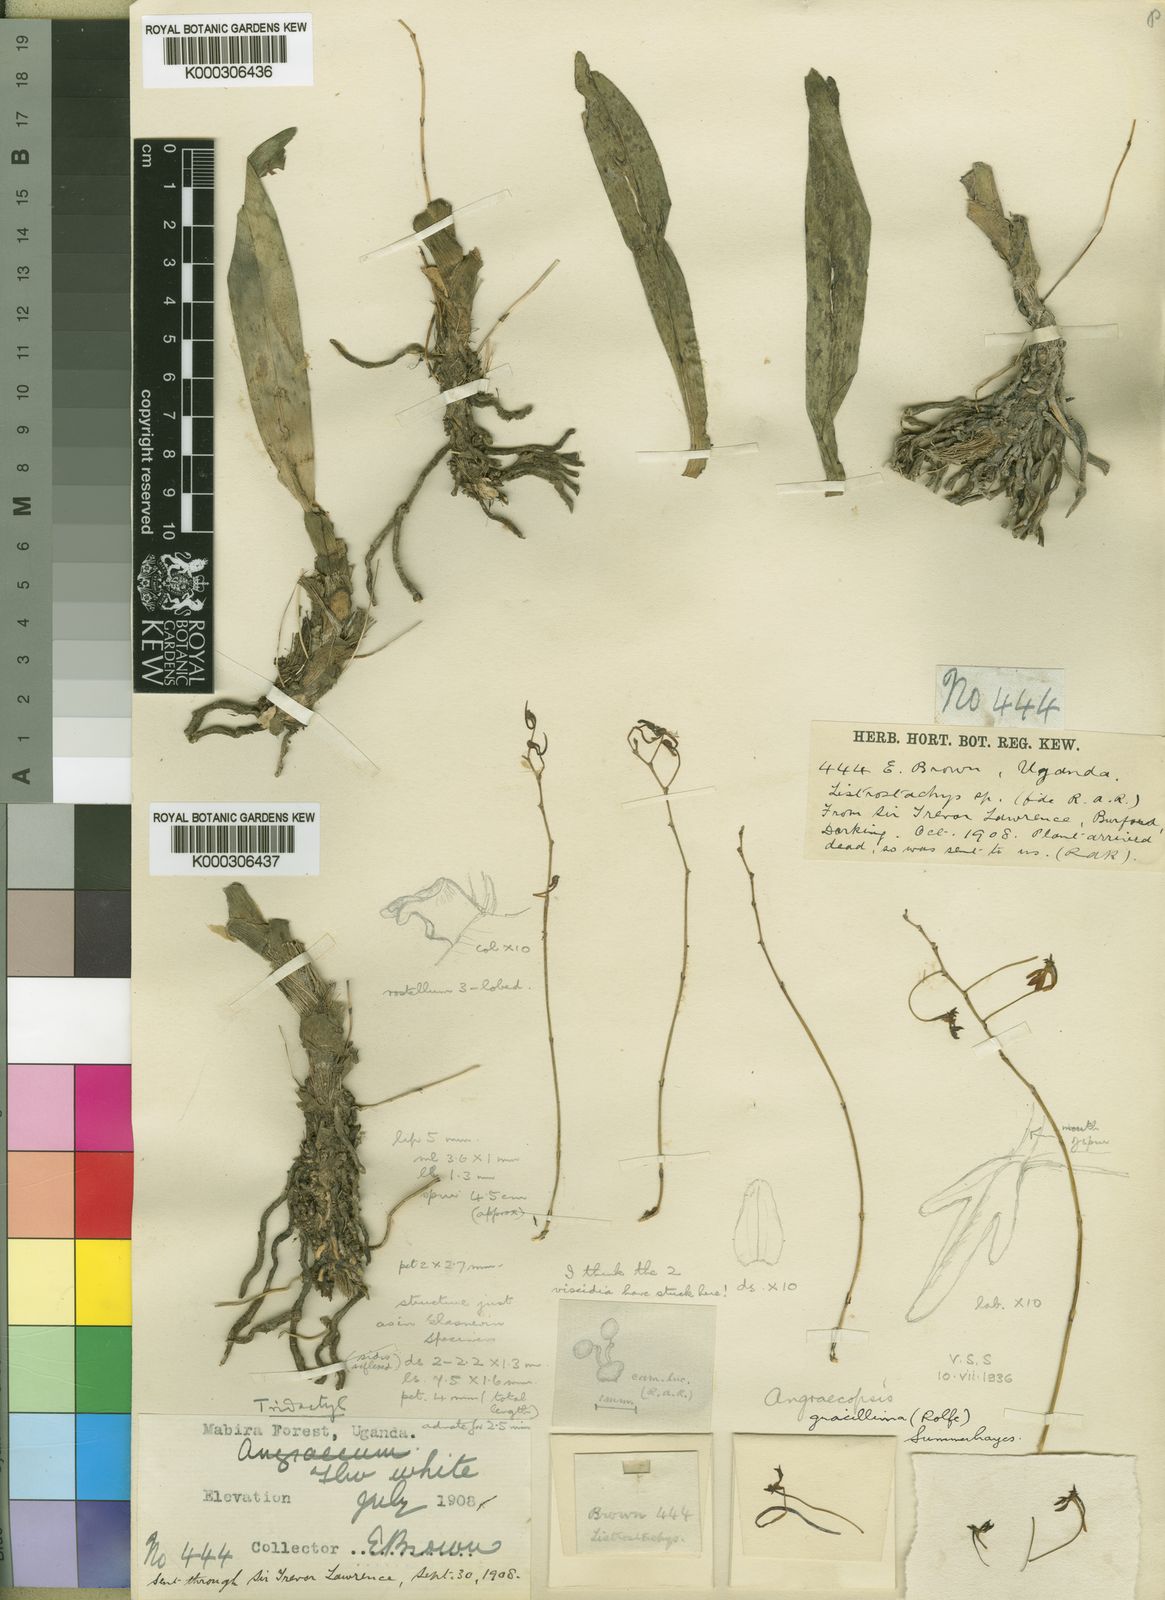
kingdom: Plantae
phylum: Tracheophyta
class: Liliopsida
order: Asparagales
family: Orchidaceae
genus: Angraecopsis
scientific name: Angraecopsis gracillima
